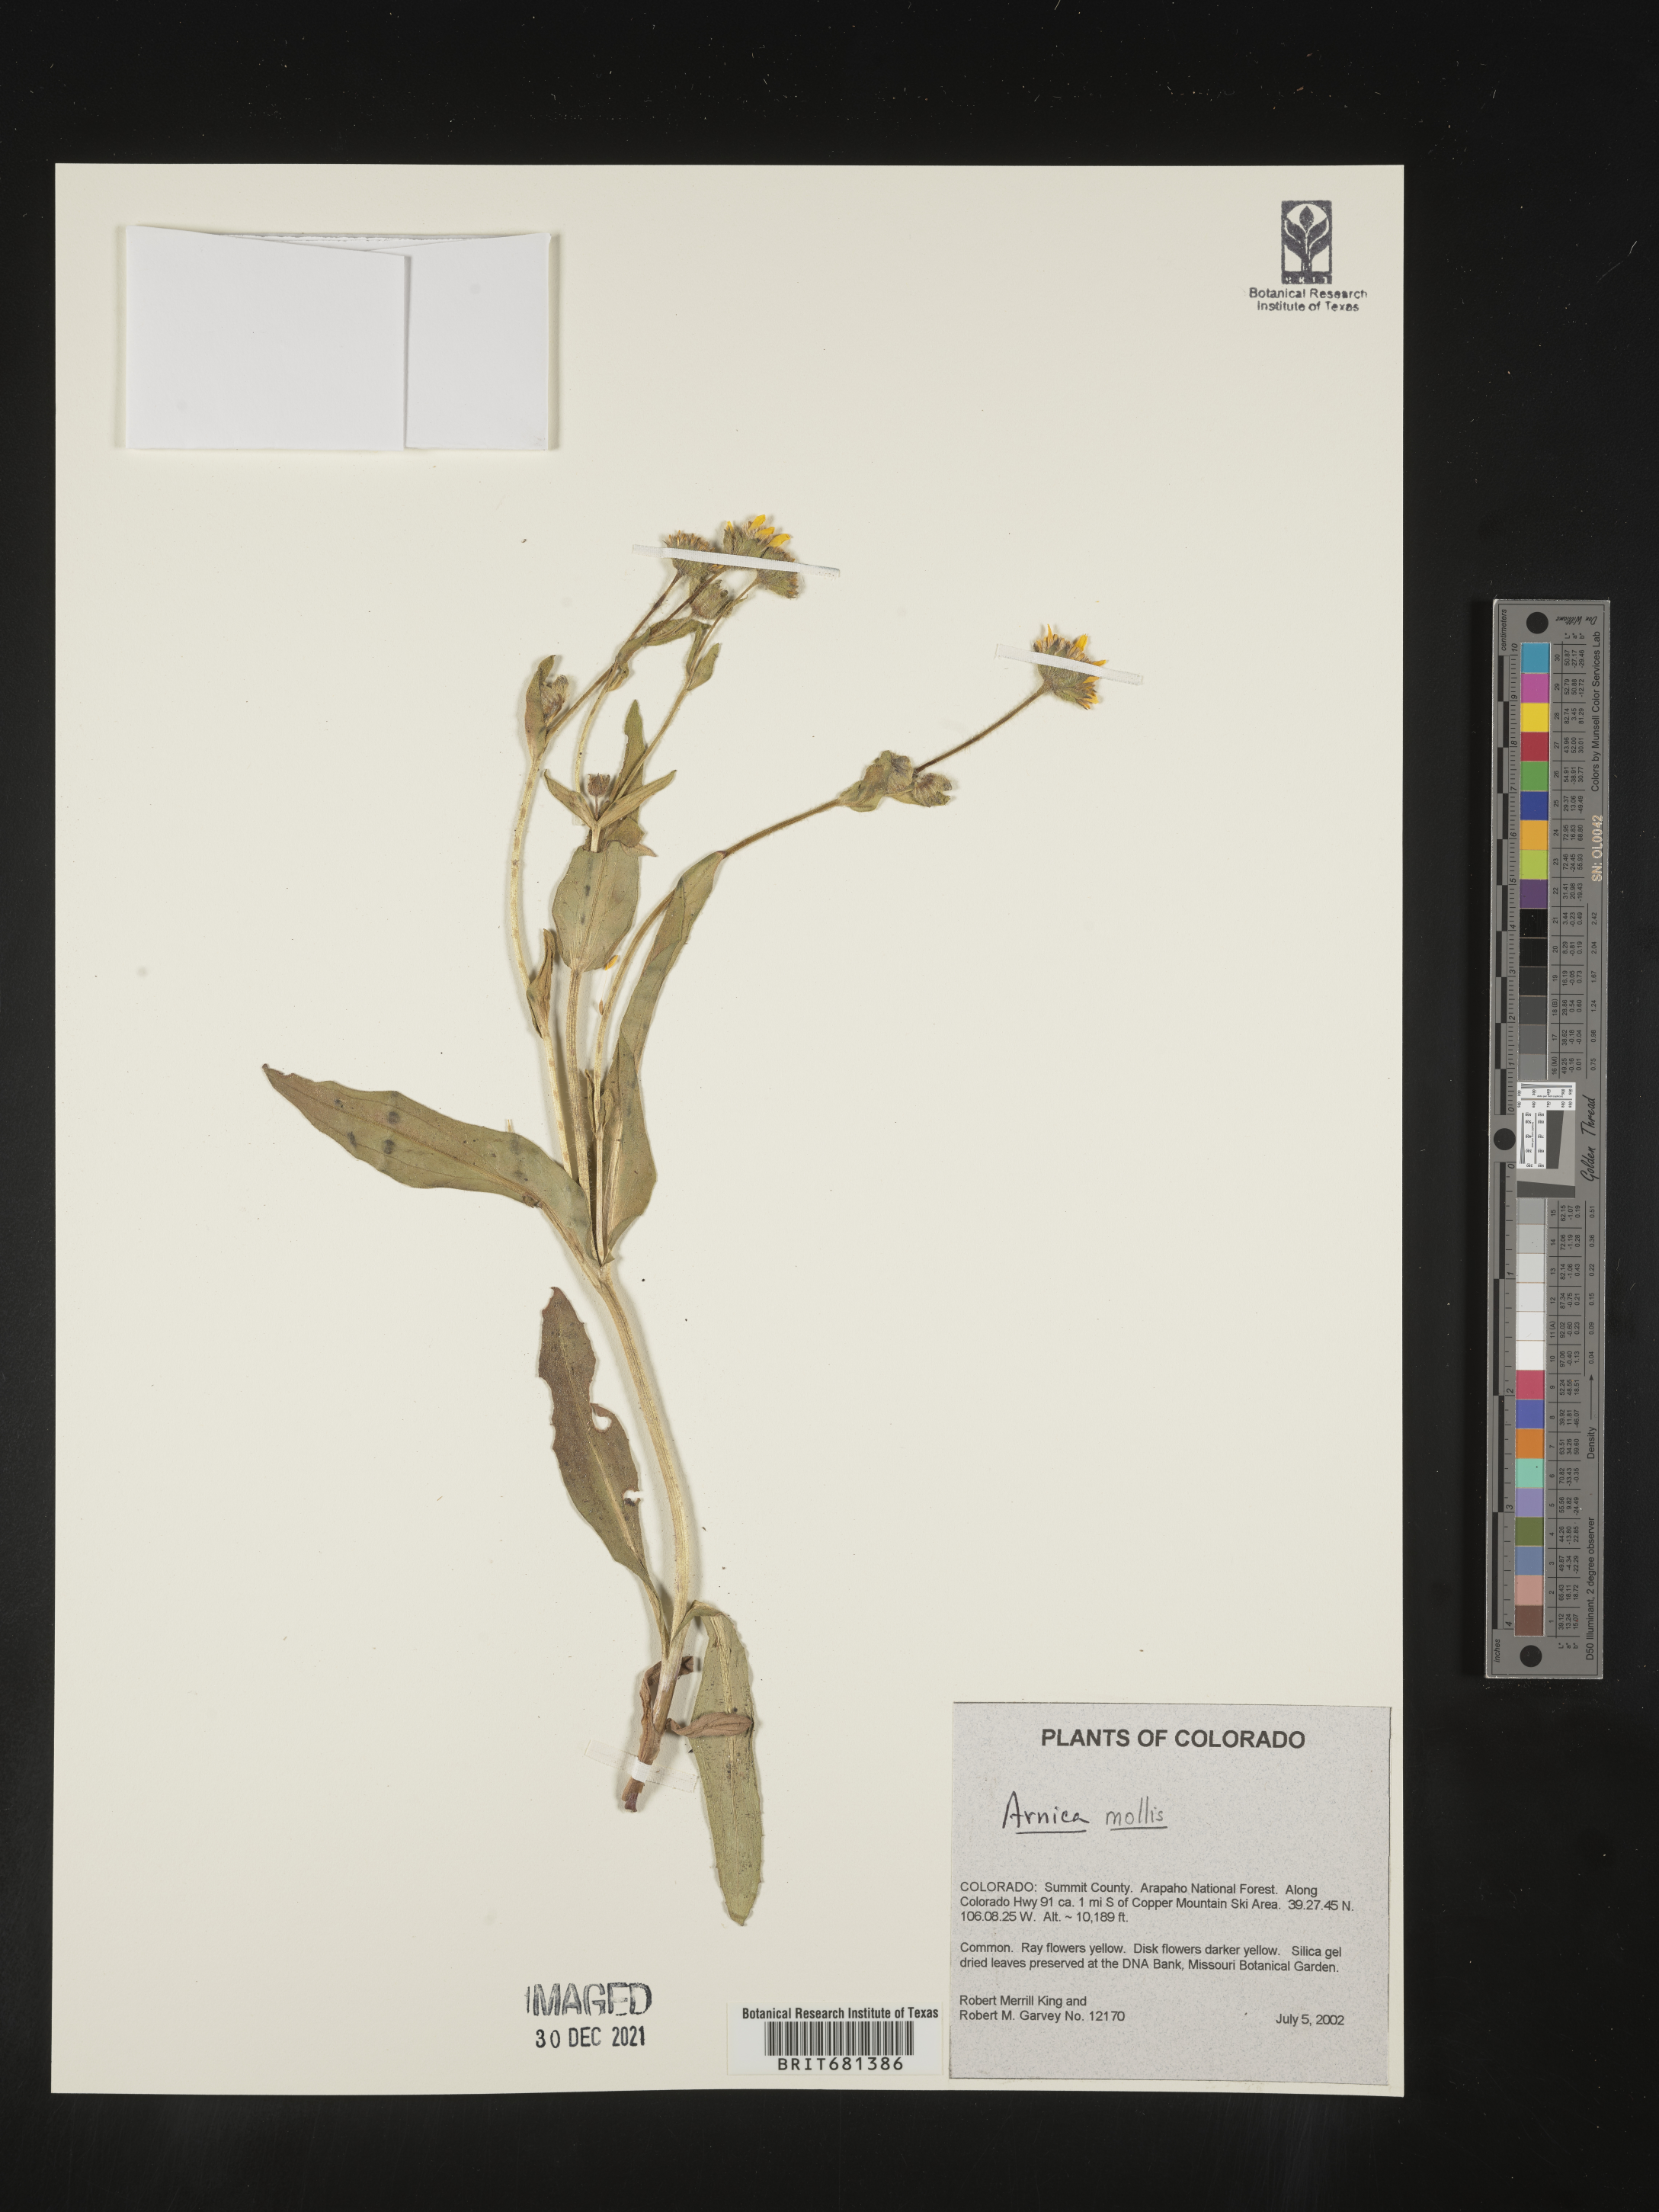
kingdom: Plantae
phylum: Tracheophyta
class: Magnoliopsida
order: Asterales
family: Asteraceae
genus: Arnica
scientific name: Arnica mollis
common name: Hairy arnica
